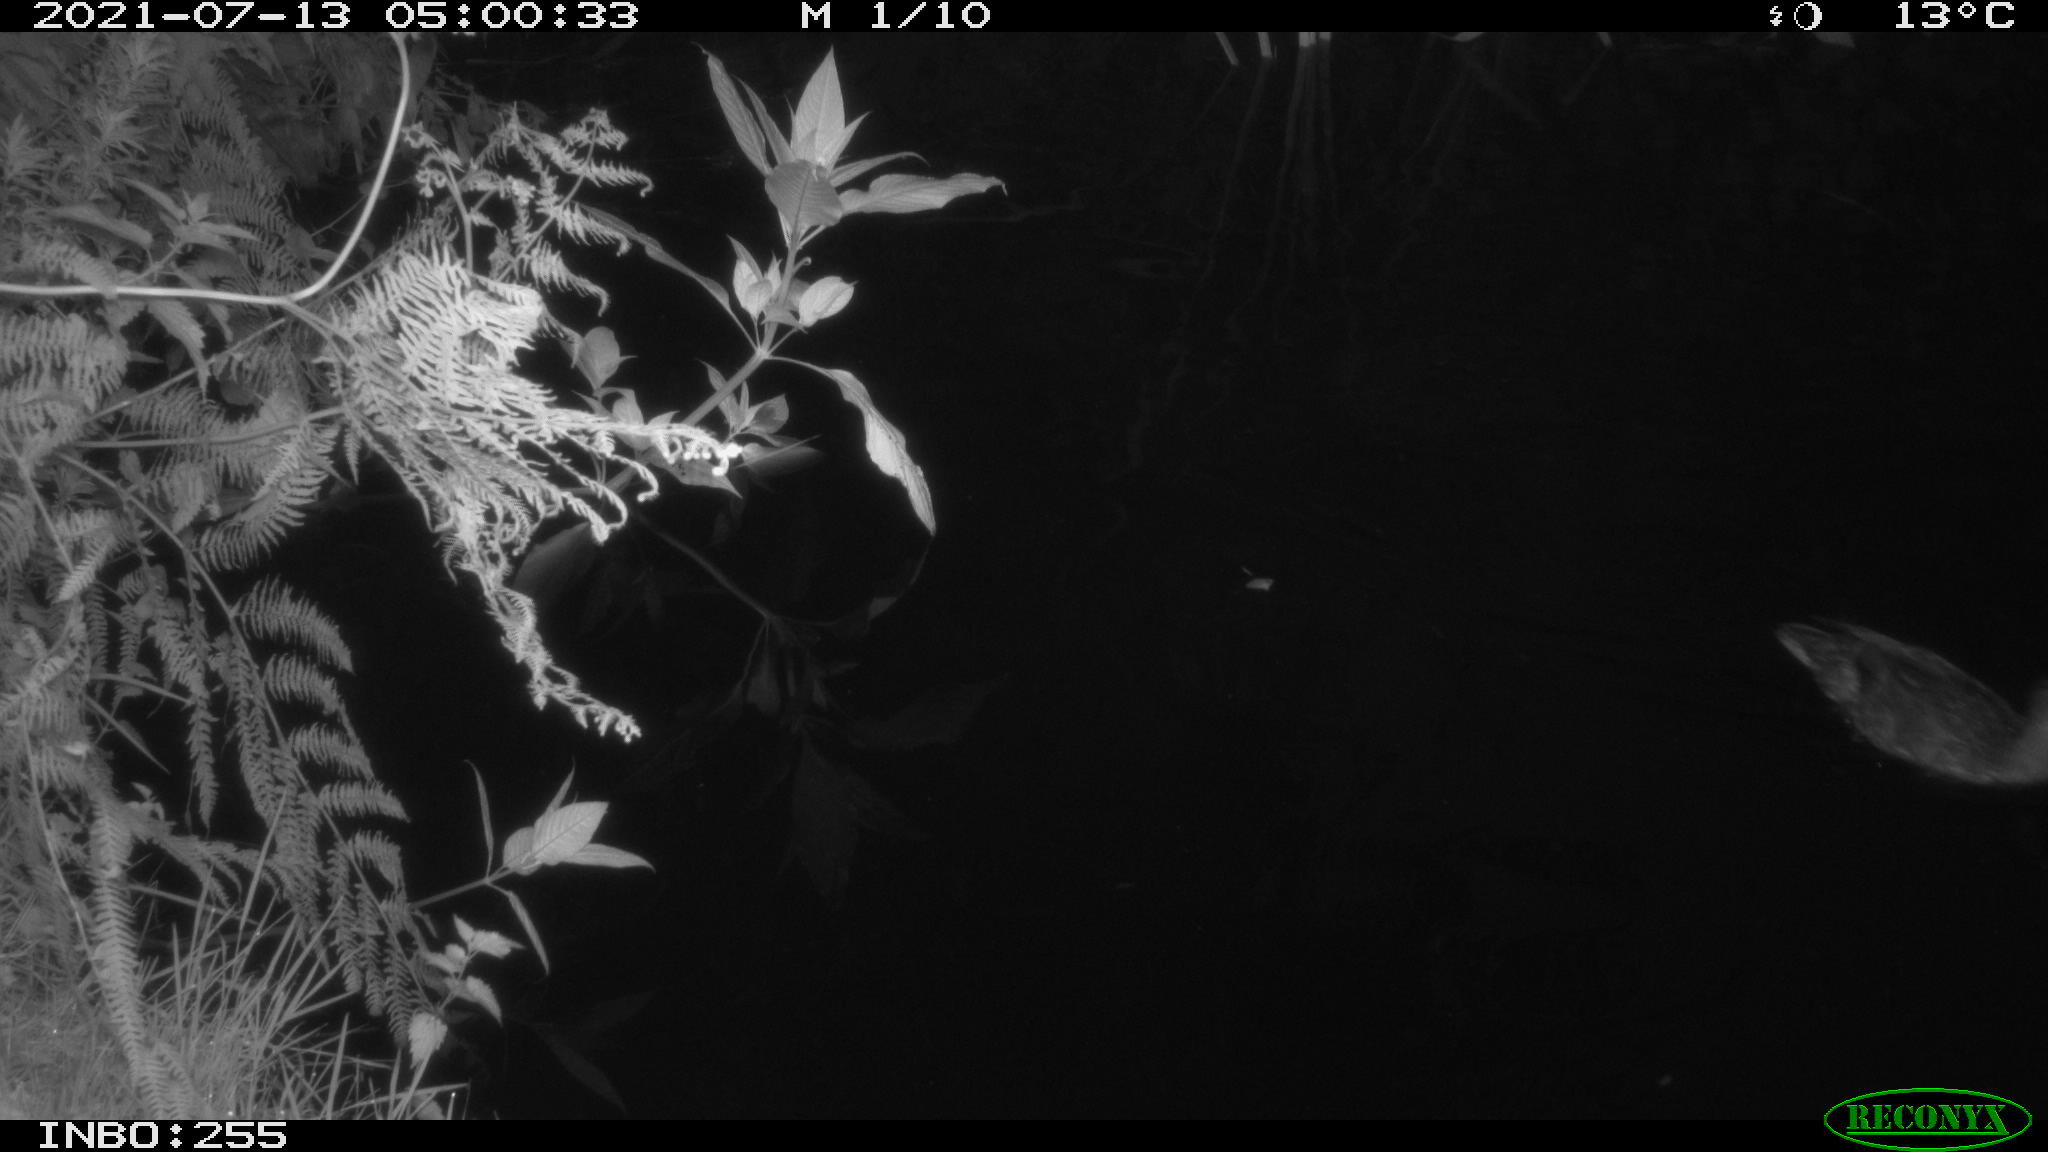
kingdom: Animalia
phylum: Chordata
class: Aves
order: Anseriformes
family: Anatidae
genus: Anas
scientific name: Anas platyrhynchos
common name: Mallard
